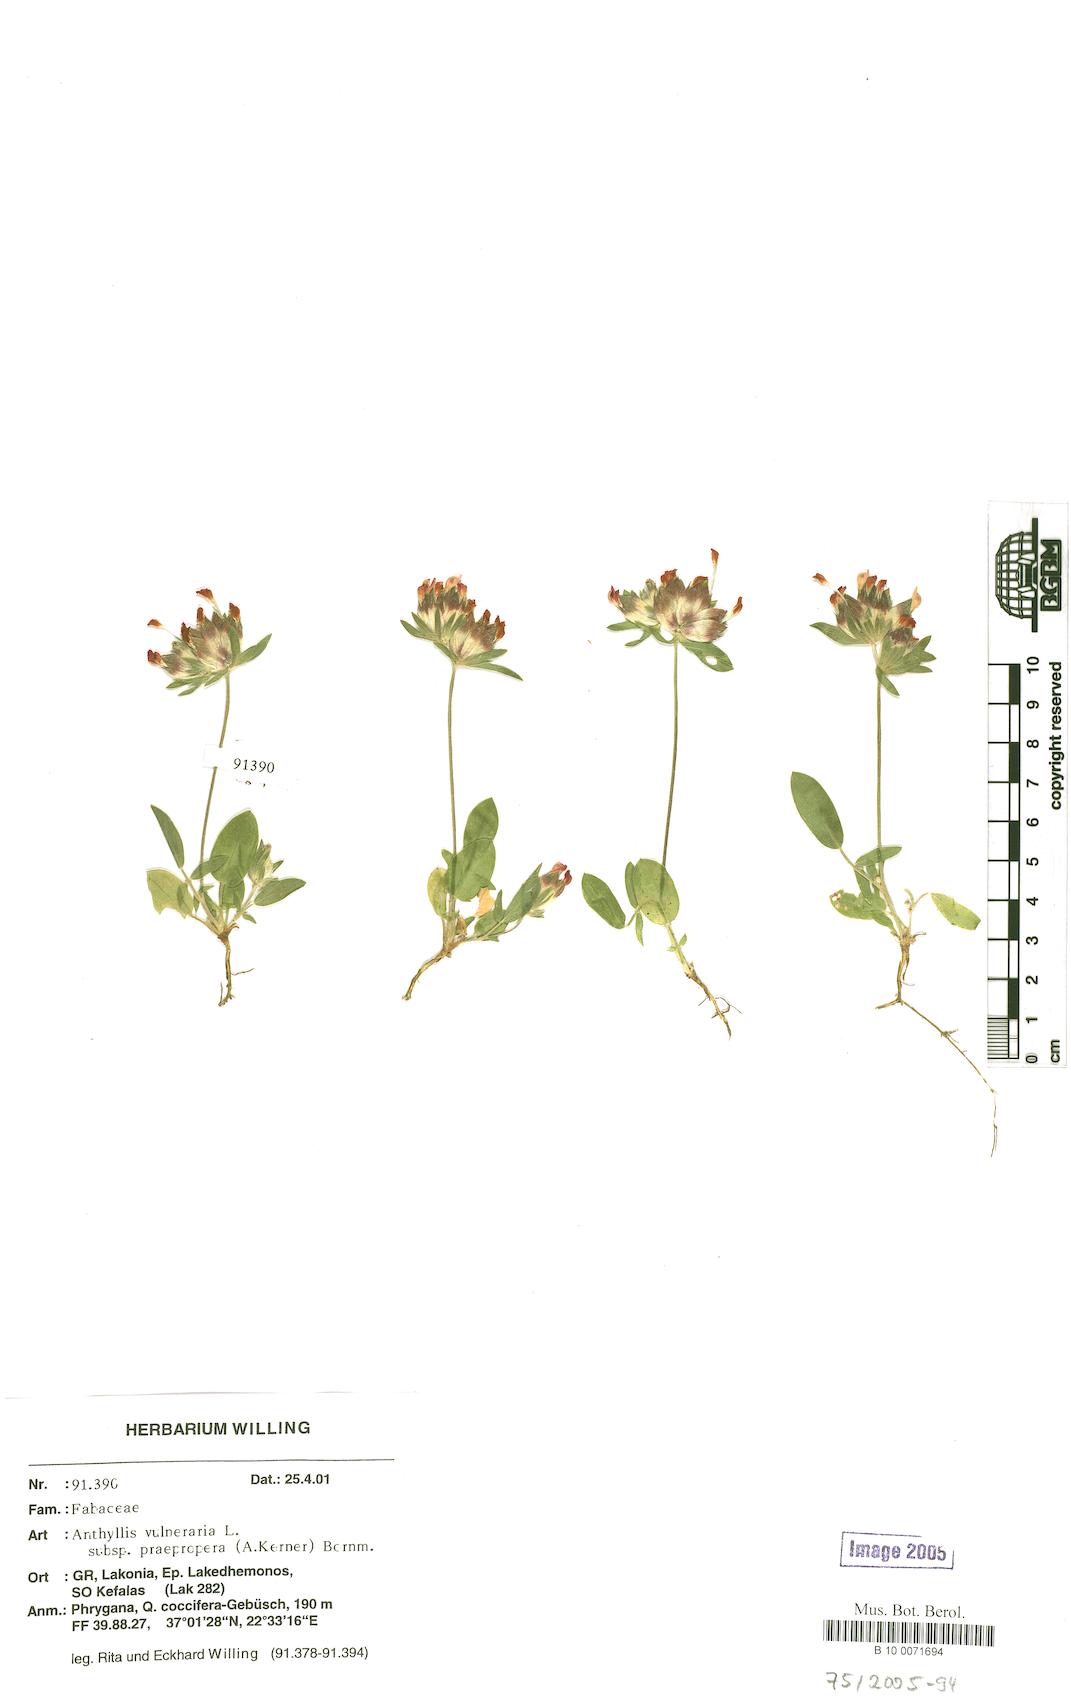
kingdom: Plantae
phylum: Tracheophyta
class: Magnoliopsida
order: Fabales
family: Fabaceae
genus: Anthyllis
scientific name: Anthyllis vulneraria
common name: Kidney vetch
